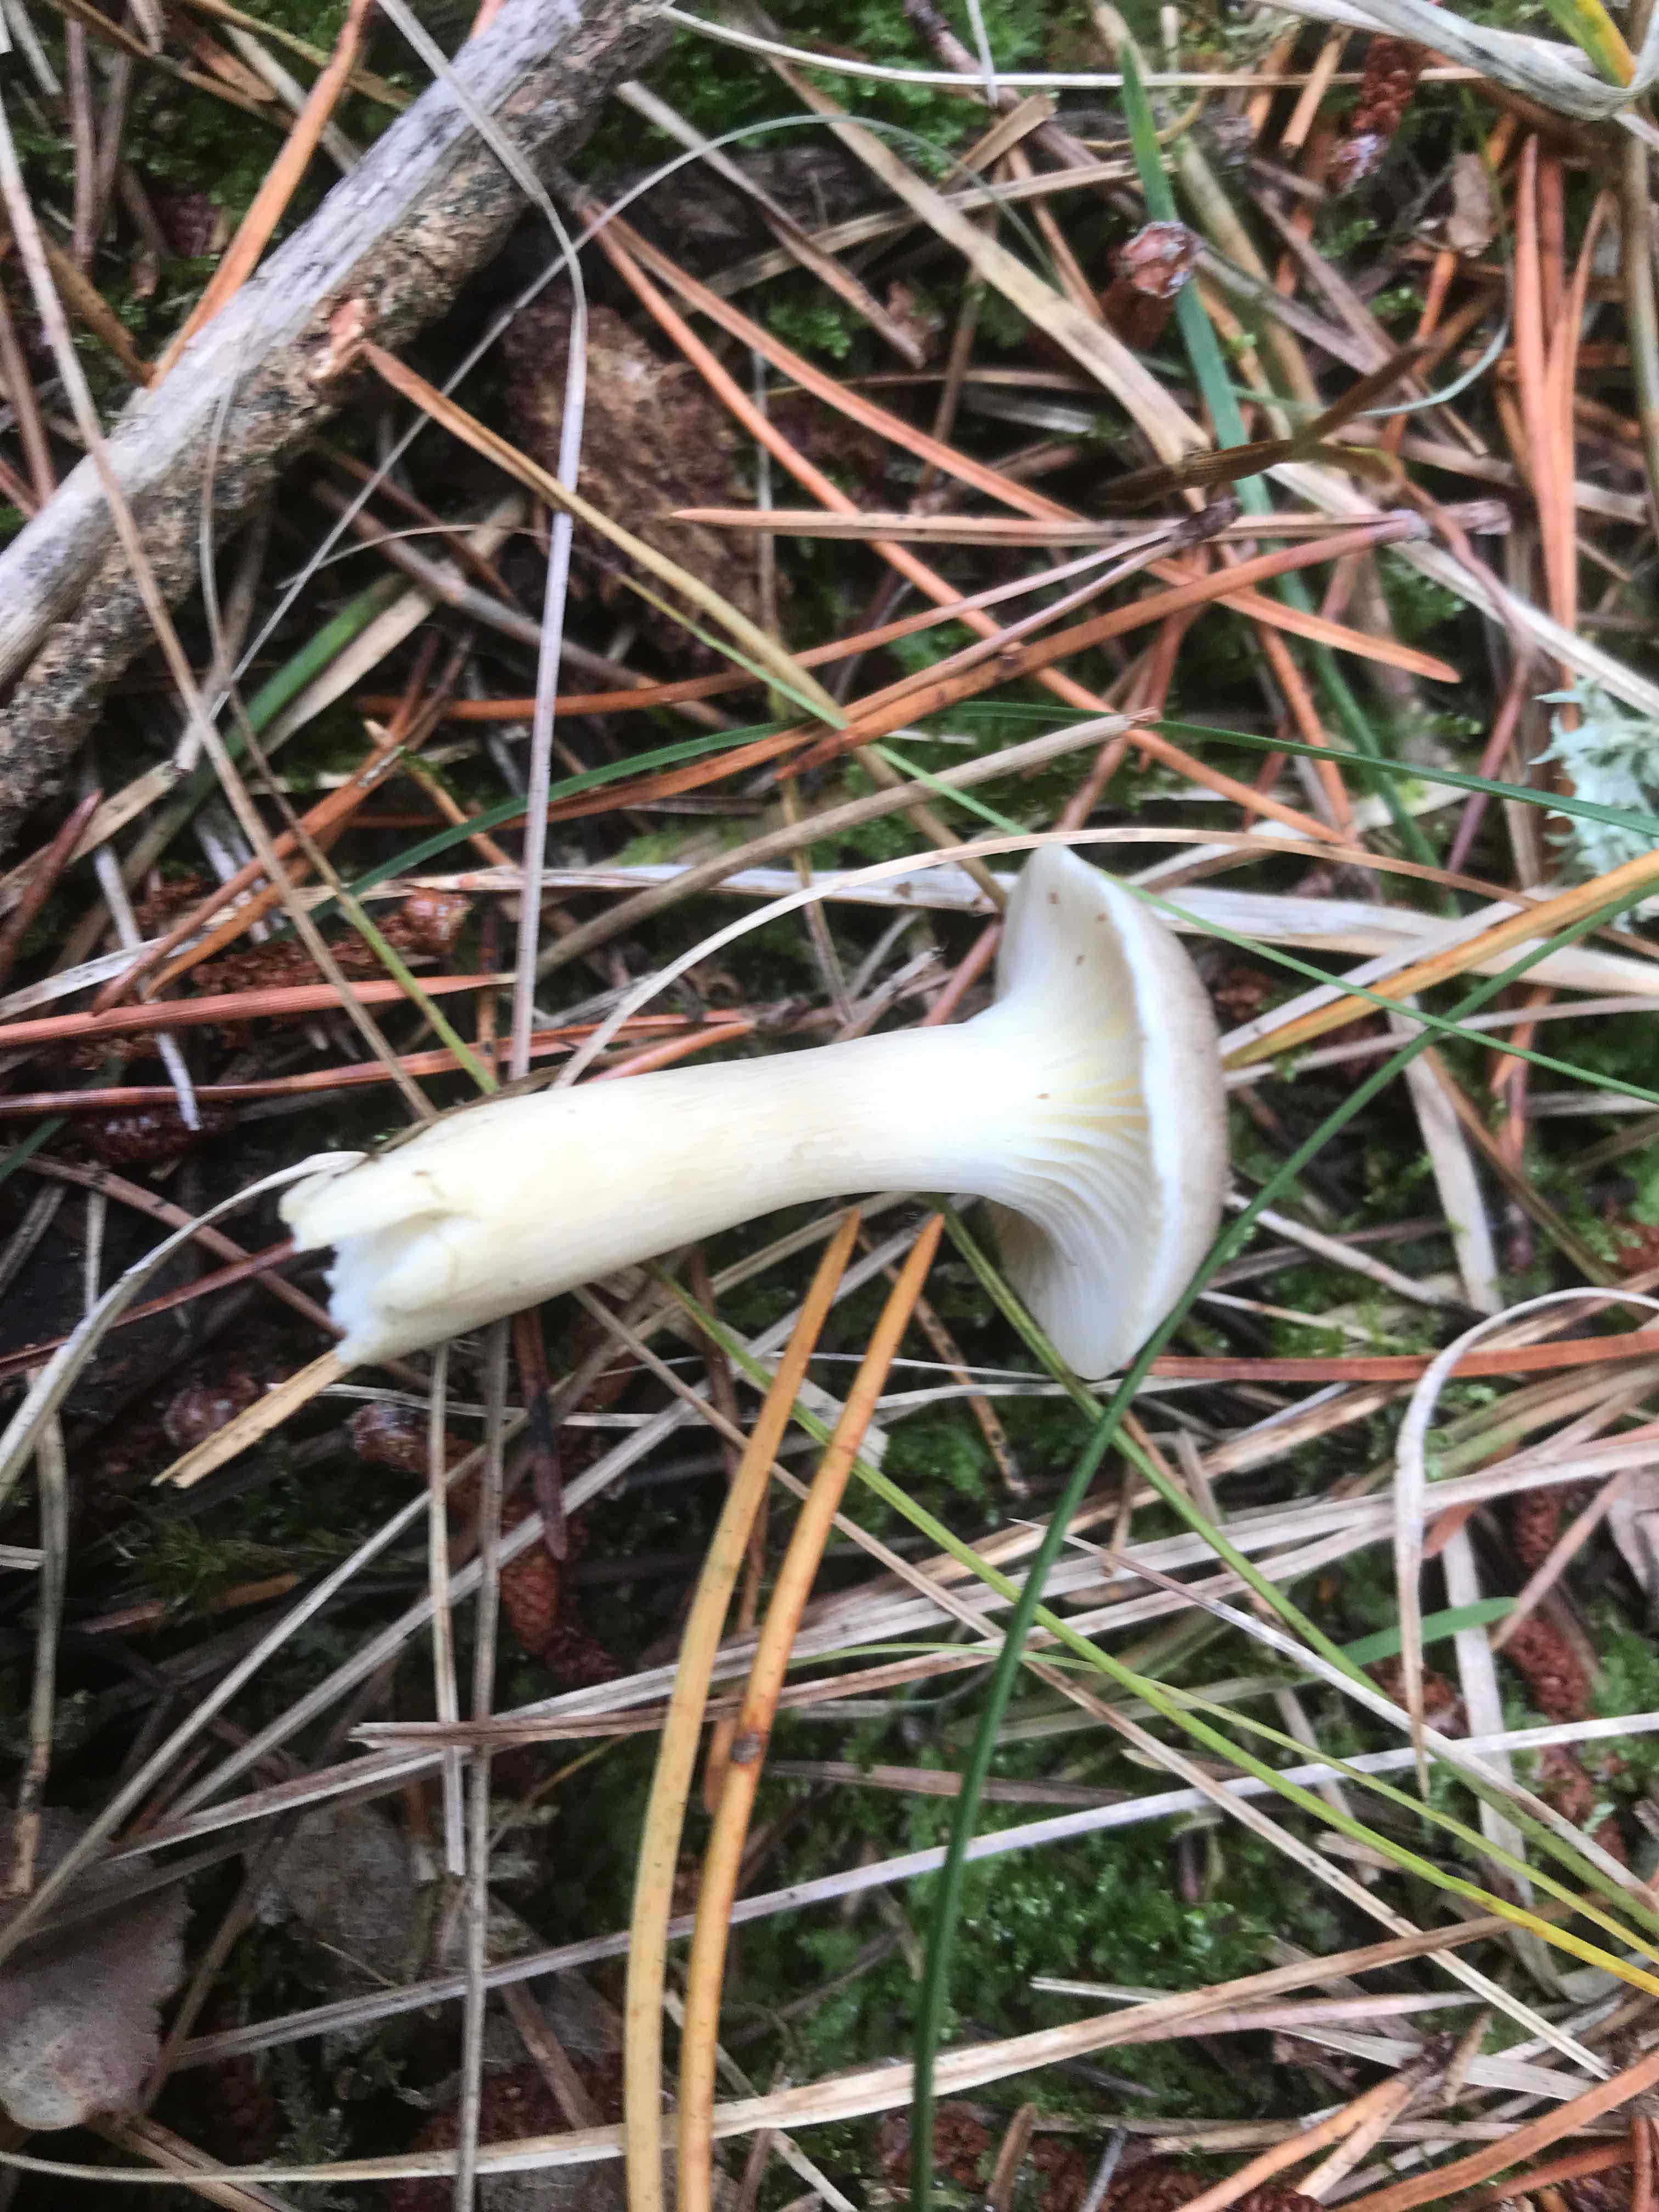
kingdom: Fungi
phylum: Basidiomycota
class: Agaricomycetes
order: Agaricales
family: Hygrophoraceae
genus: Ampulloclitocybe
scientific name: Ampulloclitocybe clavipes
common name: køllefod
